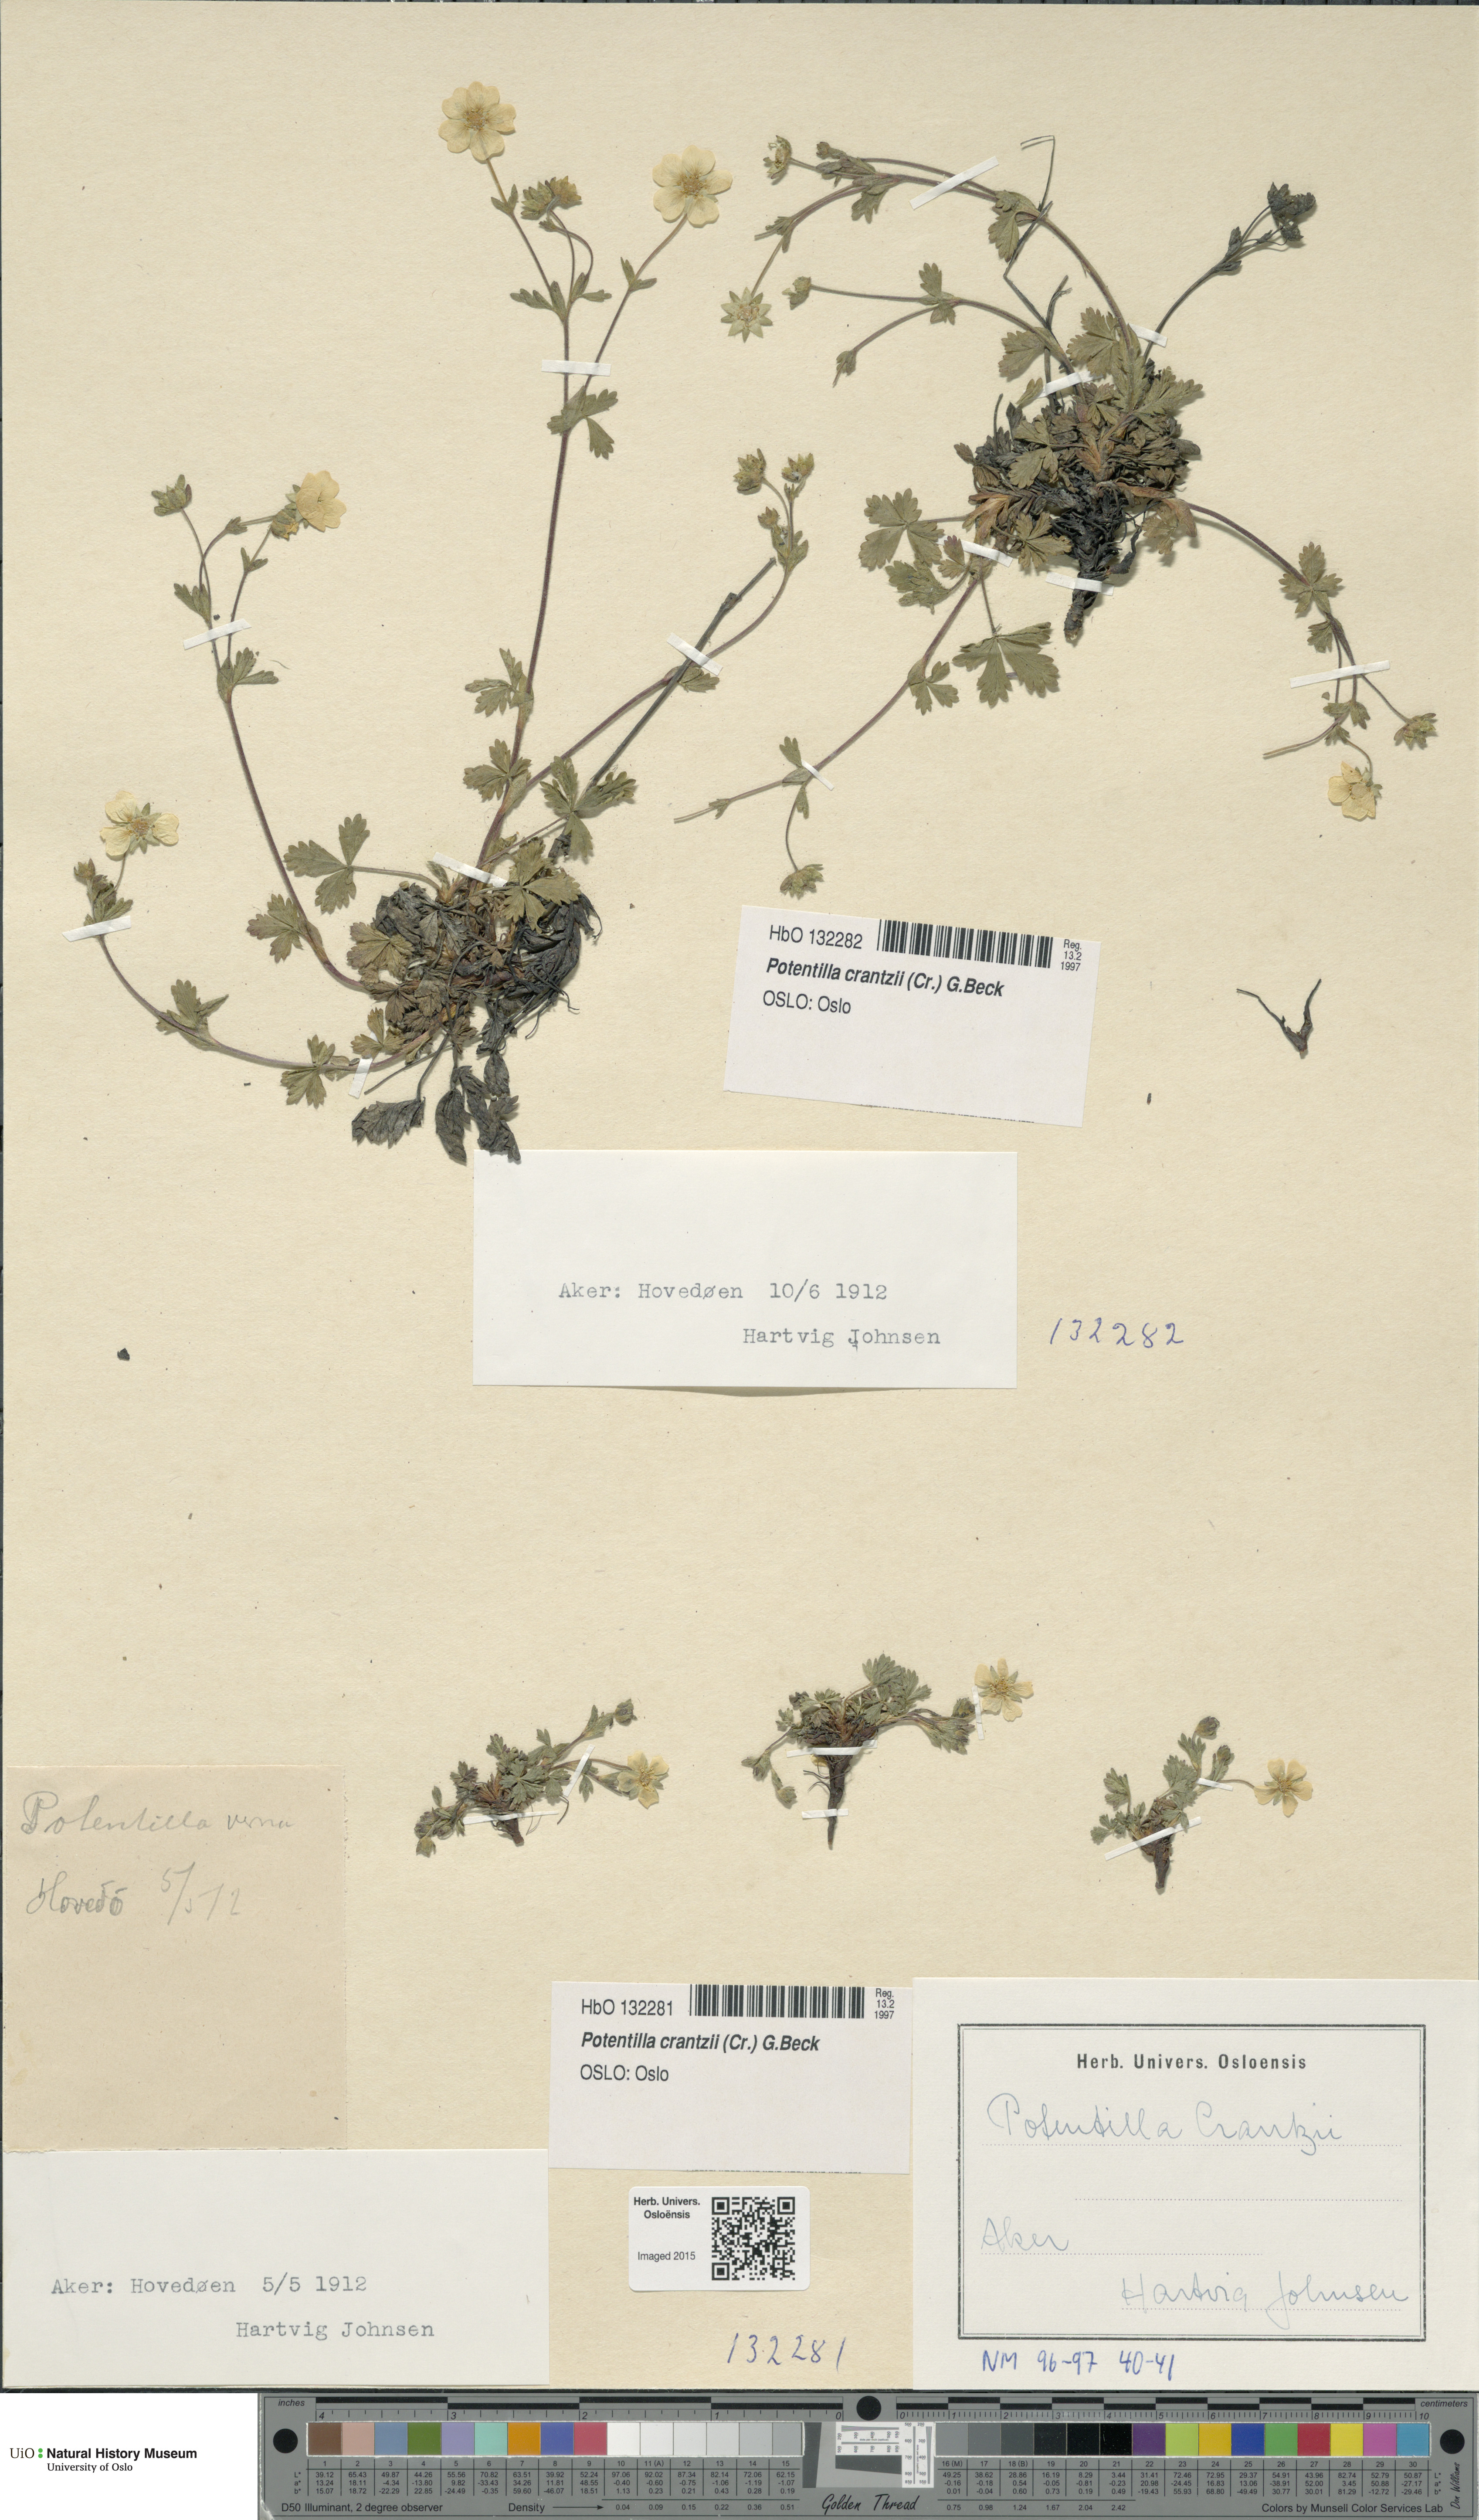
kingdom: Plantae
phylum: Tracheophyta
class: Magnoliopsida
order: Rosales
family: Rosaceae
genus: Potentilla
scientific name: Potentilla crantzii
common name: Alpine cinquefoil
